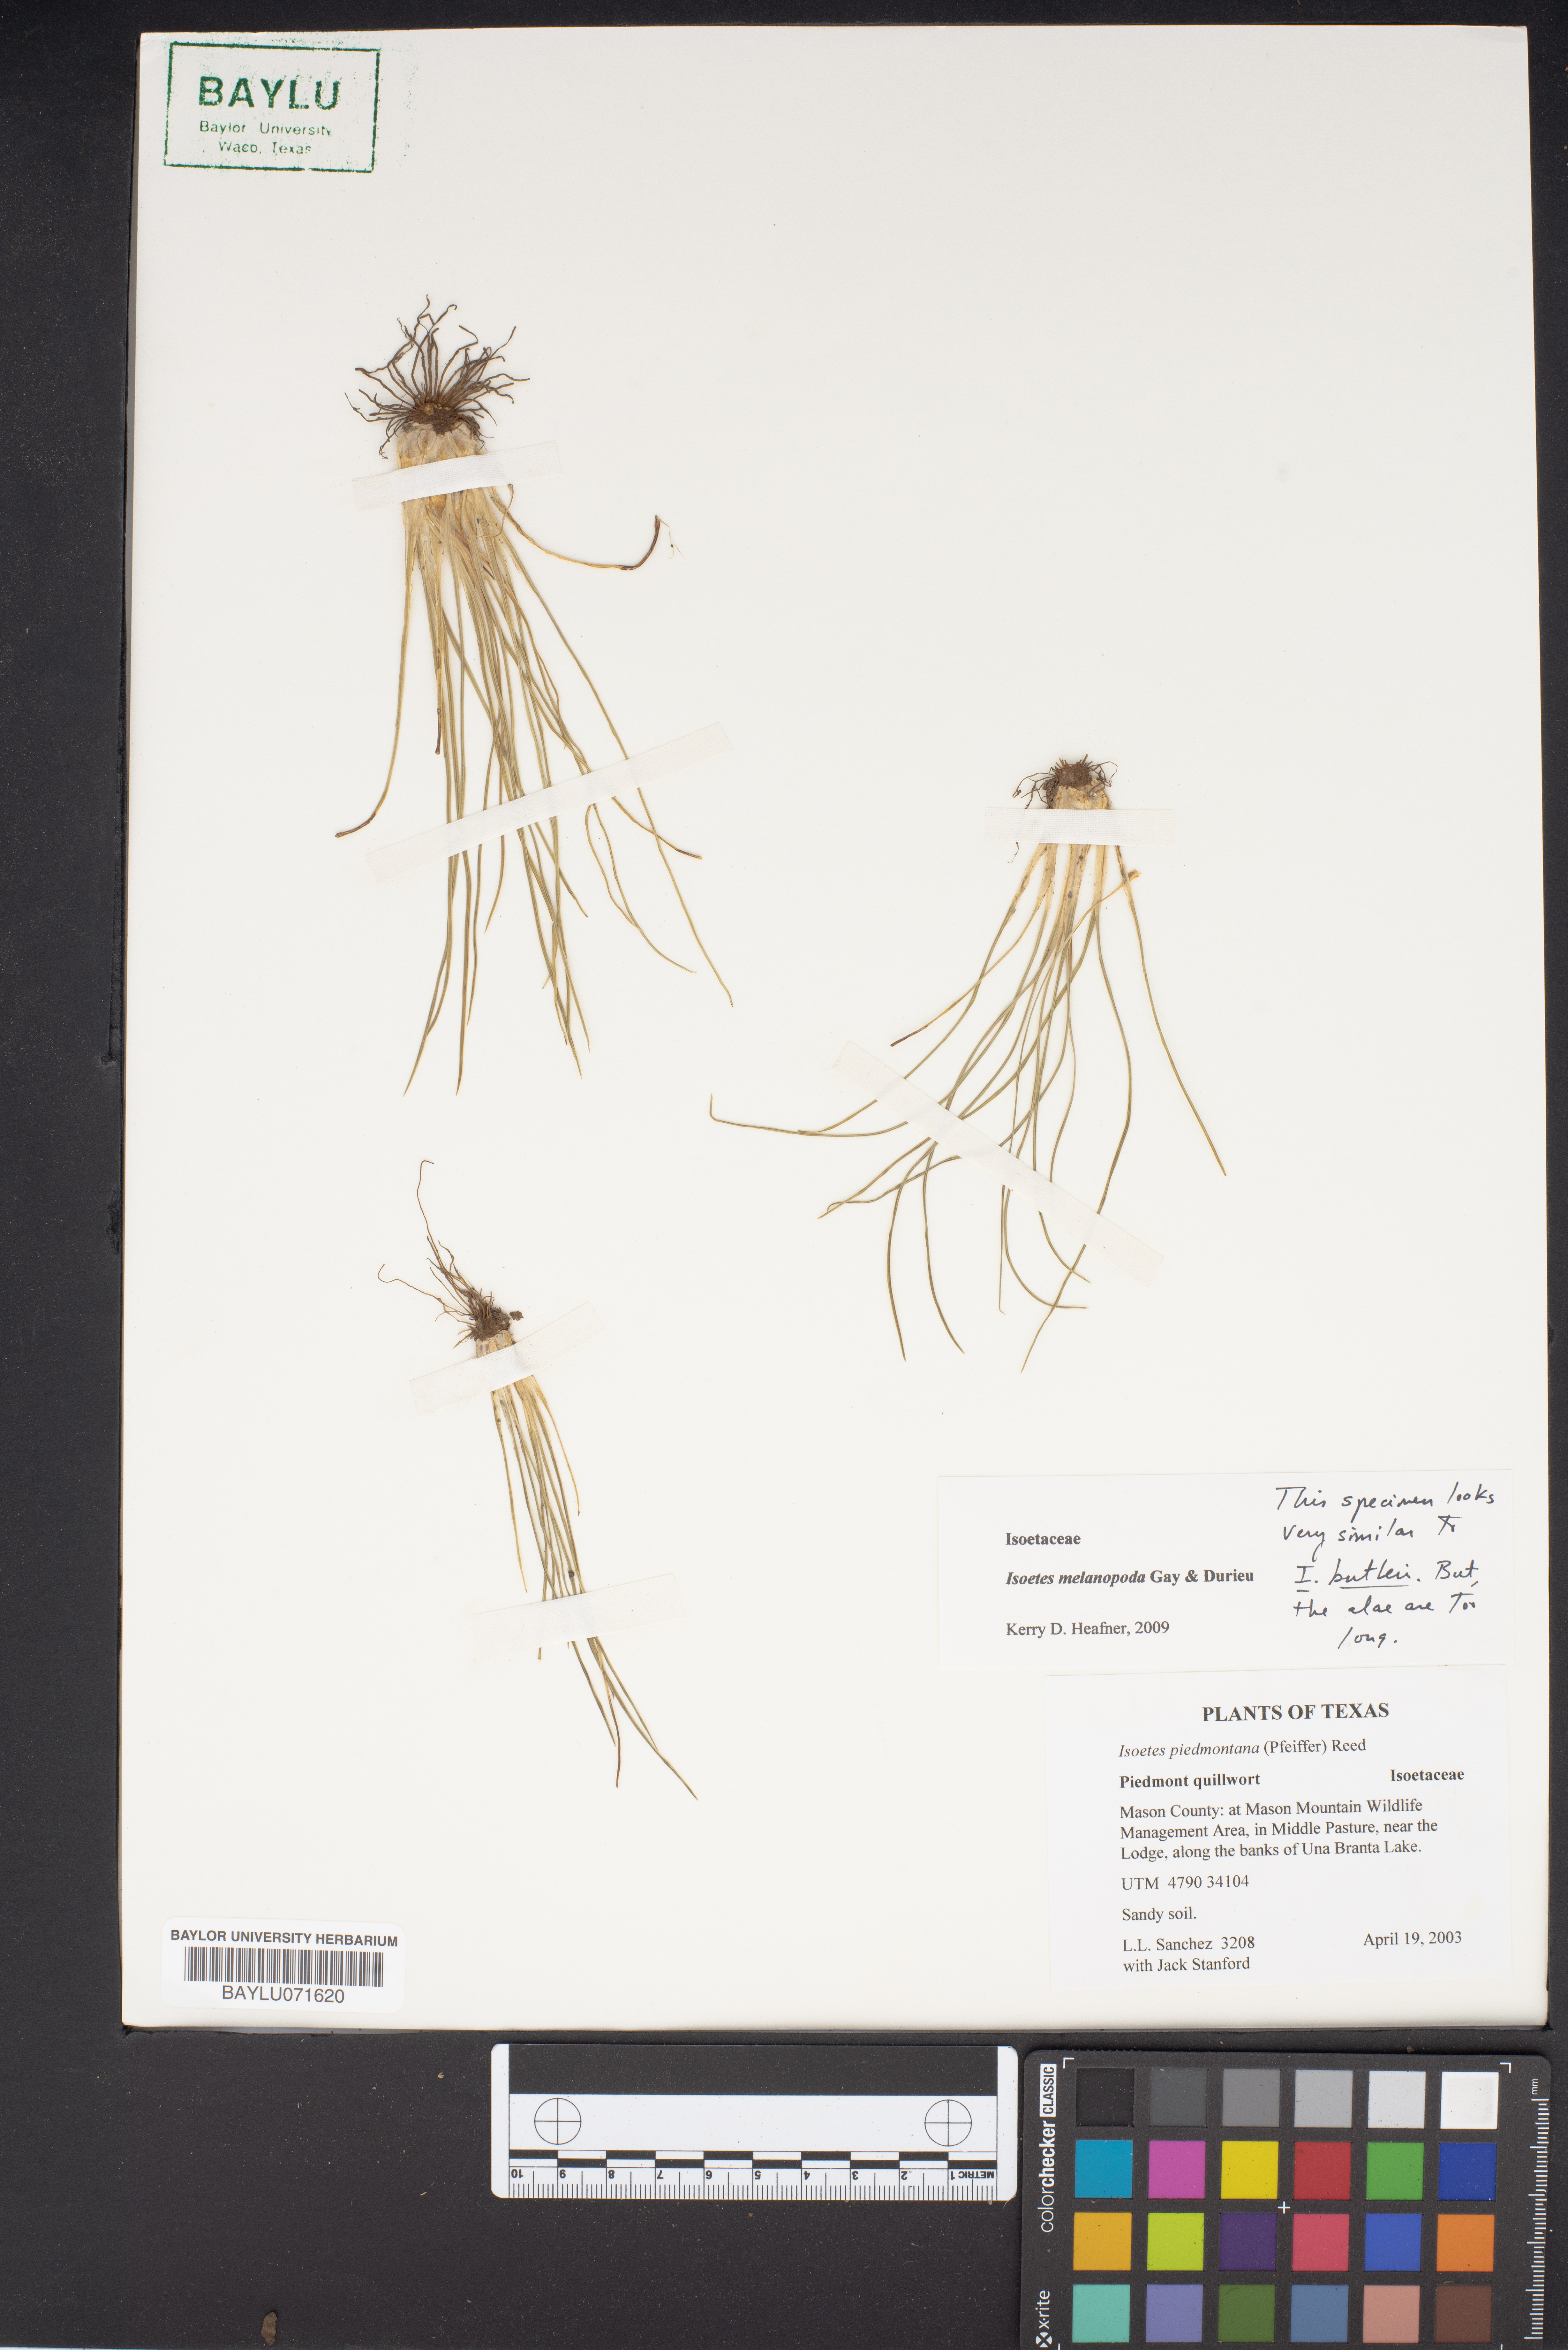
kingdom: Plantae
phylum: Tracheophyta
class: Lycopodiopsida
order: Isoetales
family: Isoetaceae
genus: Isoetes
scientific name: Isoetes melanopoda
